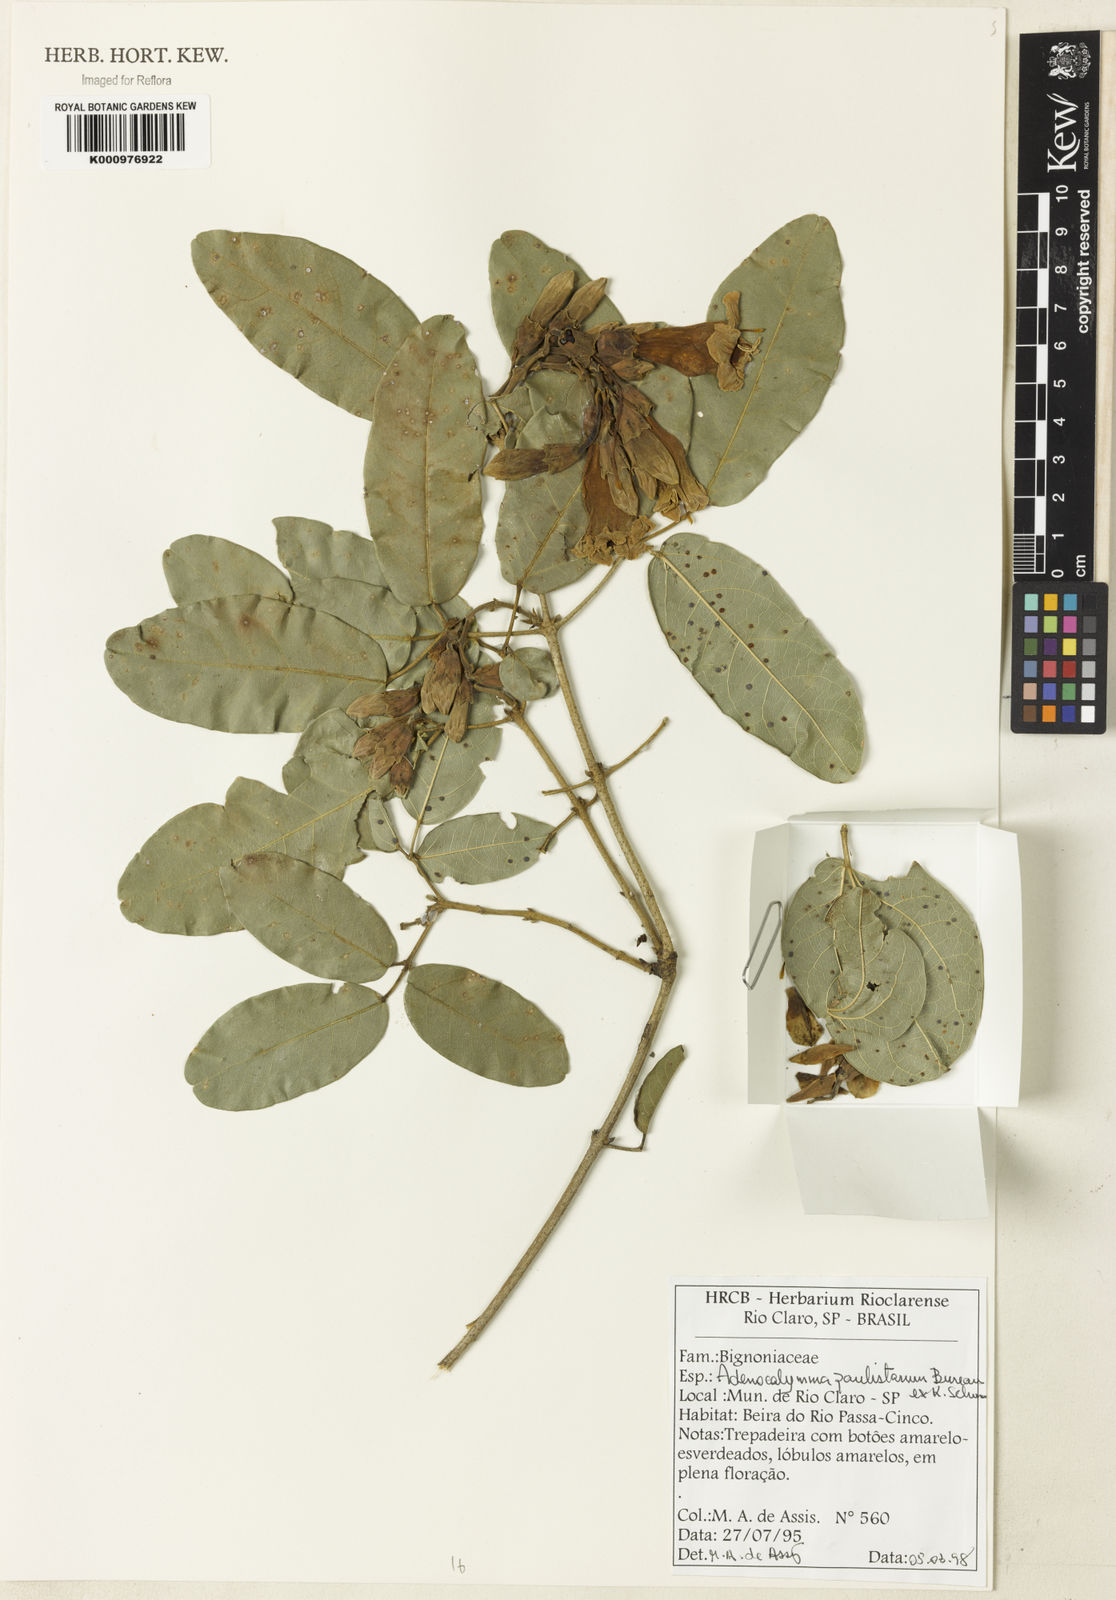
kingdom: Plantae
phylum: Tracheophyta
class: Magnoliopsida
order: Lamiales
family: Bignoniaceae
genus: Adenocalymma
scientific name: Adenocalymma paulistarum
